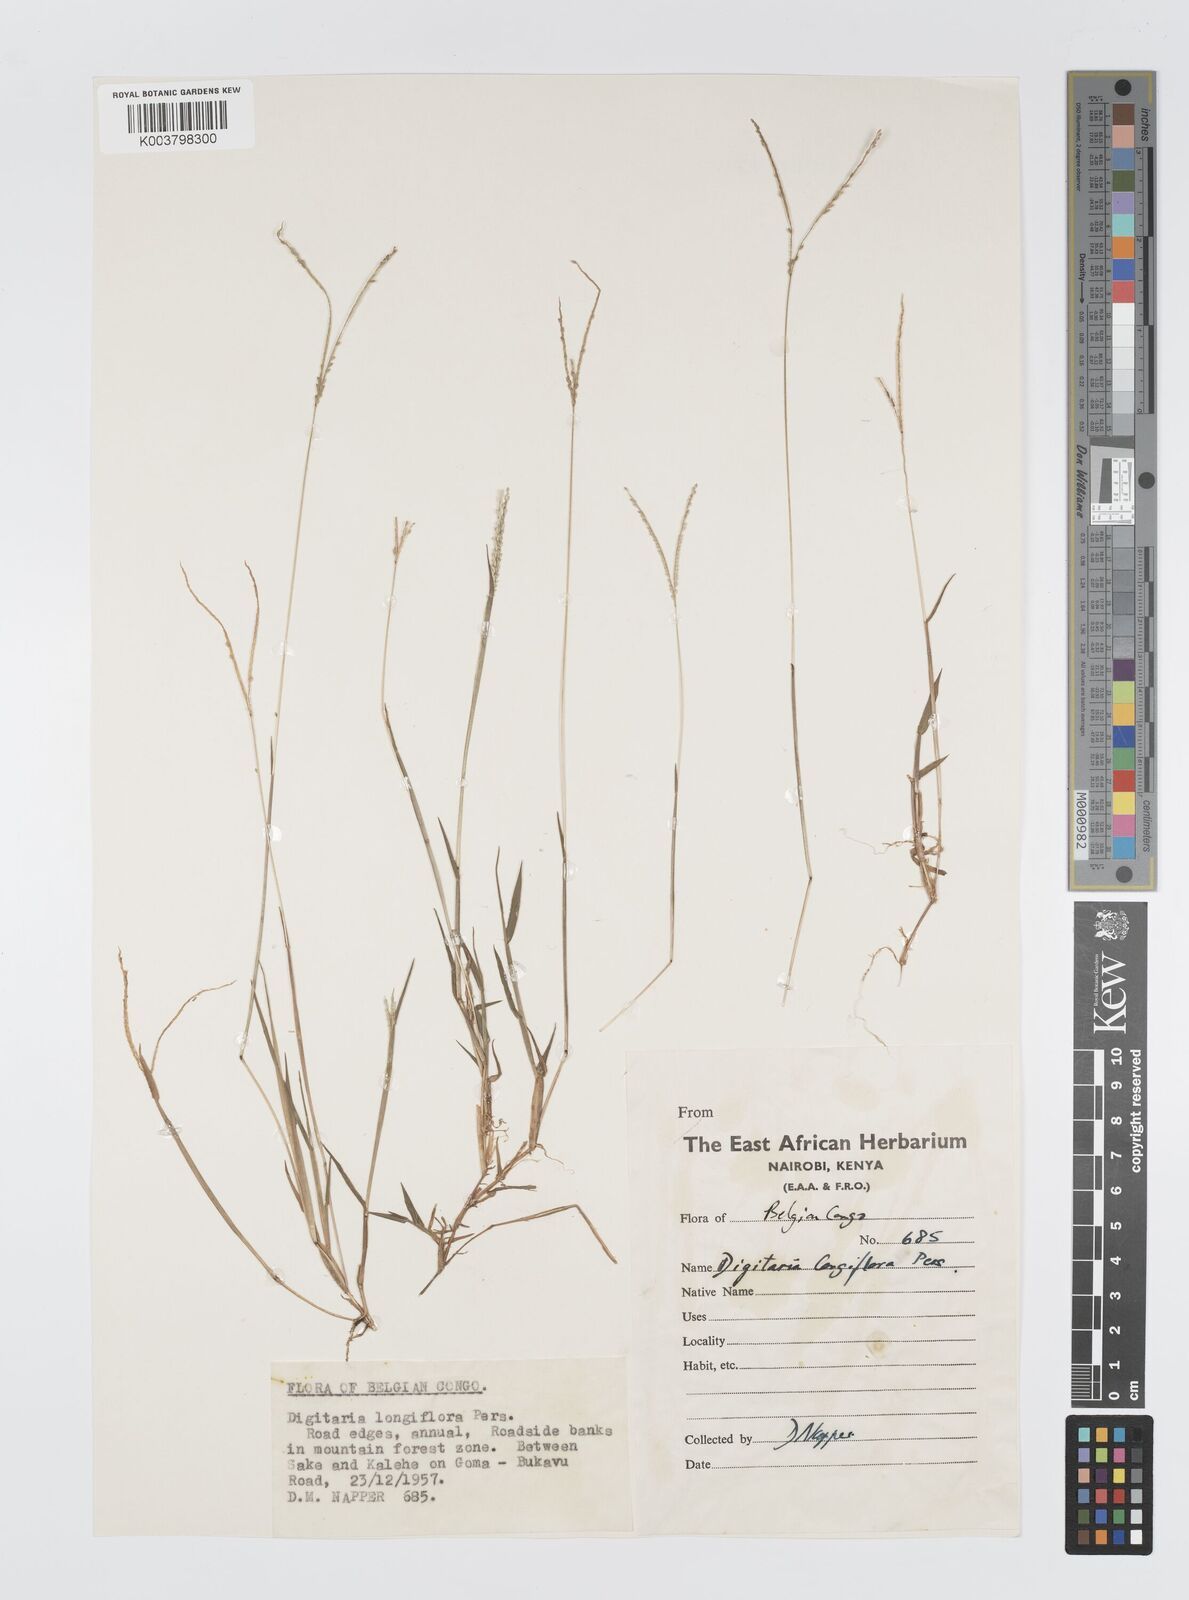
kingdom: Plantae
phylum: Tracheophyta
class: Liliopsida
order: Poales
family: Poaceae
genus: Digitaria
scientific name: Digitaria longiflora
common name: Wire crabgrass
